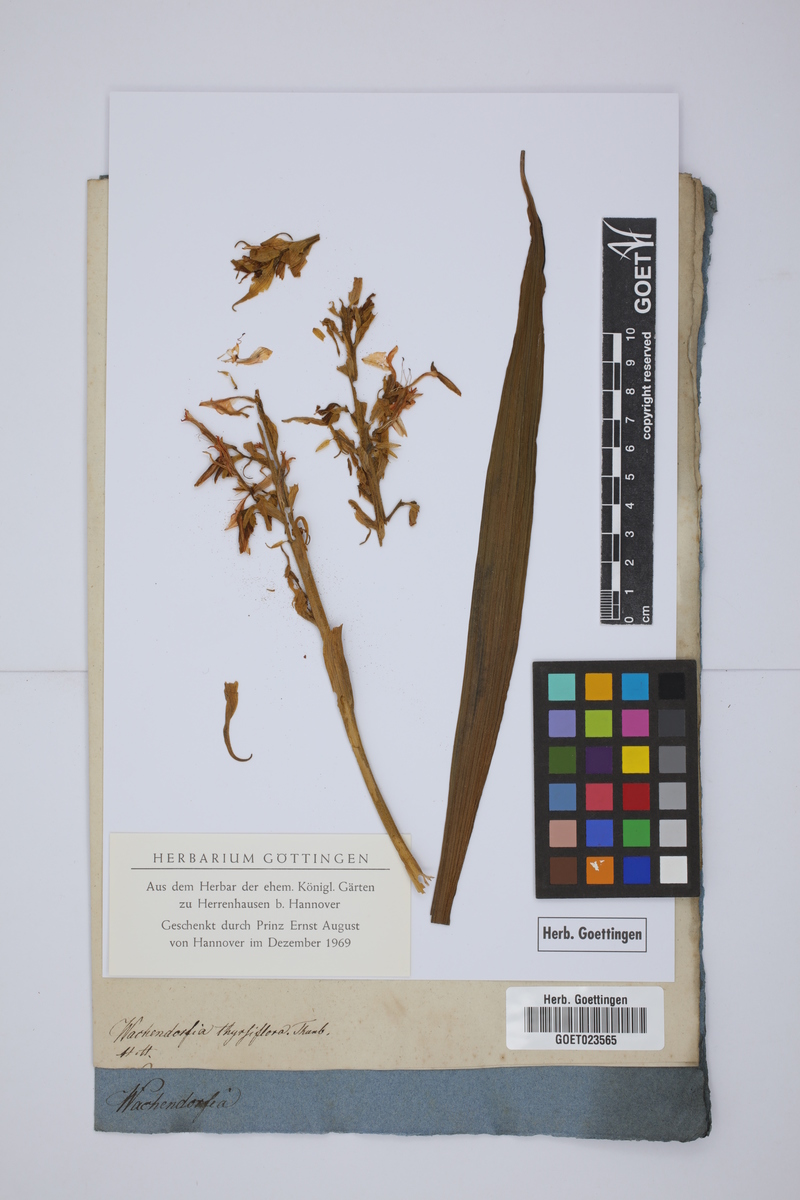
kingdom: Plantae
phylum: Tracheophyta
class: Liliopsida
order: Commelinales
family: Haemodoraceae
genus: Wachendorfia
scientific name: Wachendorfia thyrsiflora
